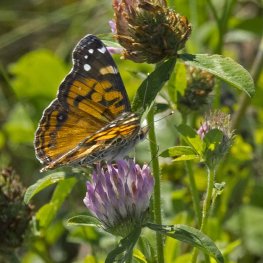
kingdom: Animalia
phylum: Arthropoda
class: Insecta
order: Lepidoptera
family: Nymphalidae
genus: Vanessa
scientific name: Vanessa virginiensis
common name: American Lady
